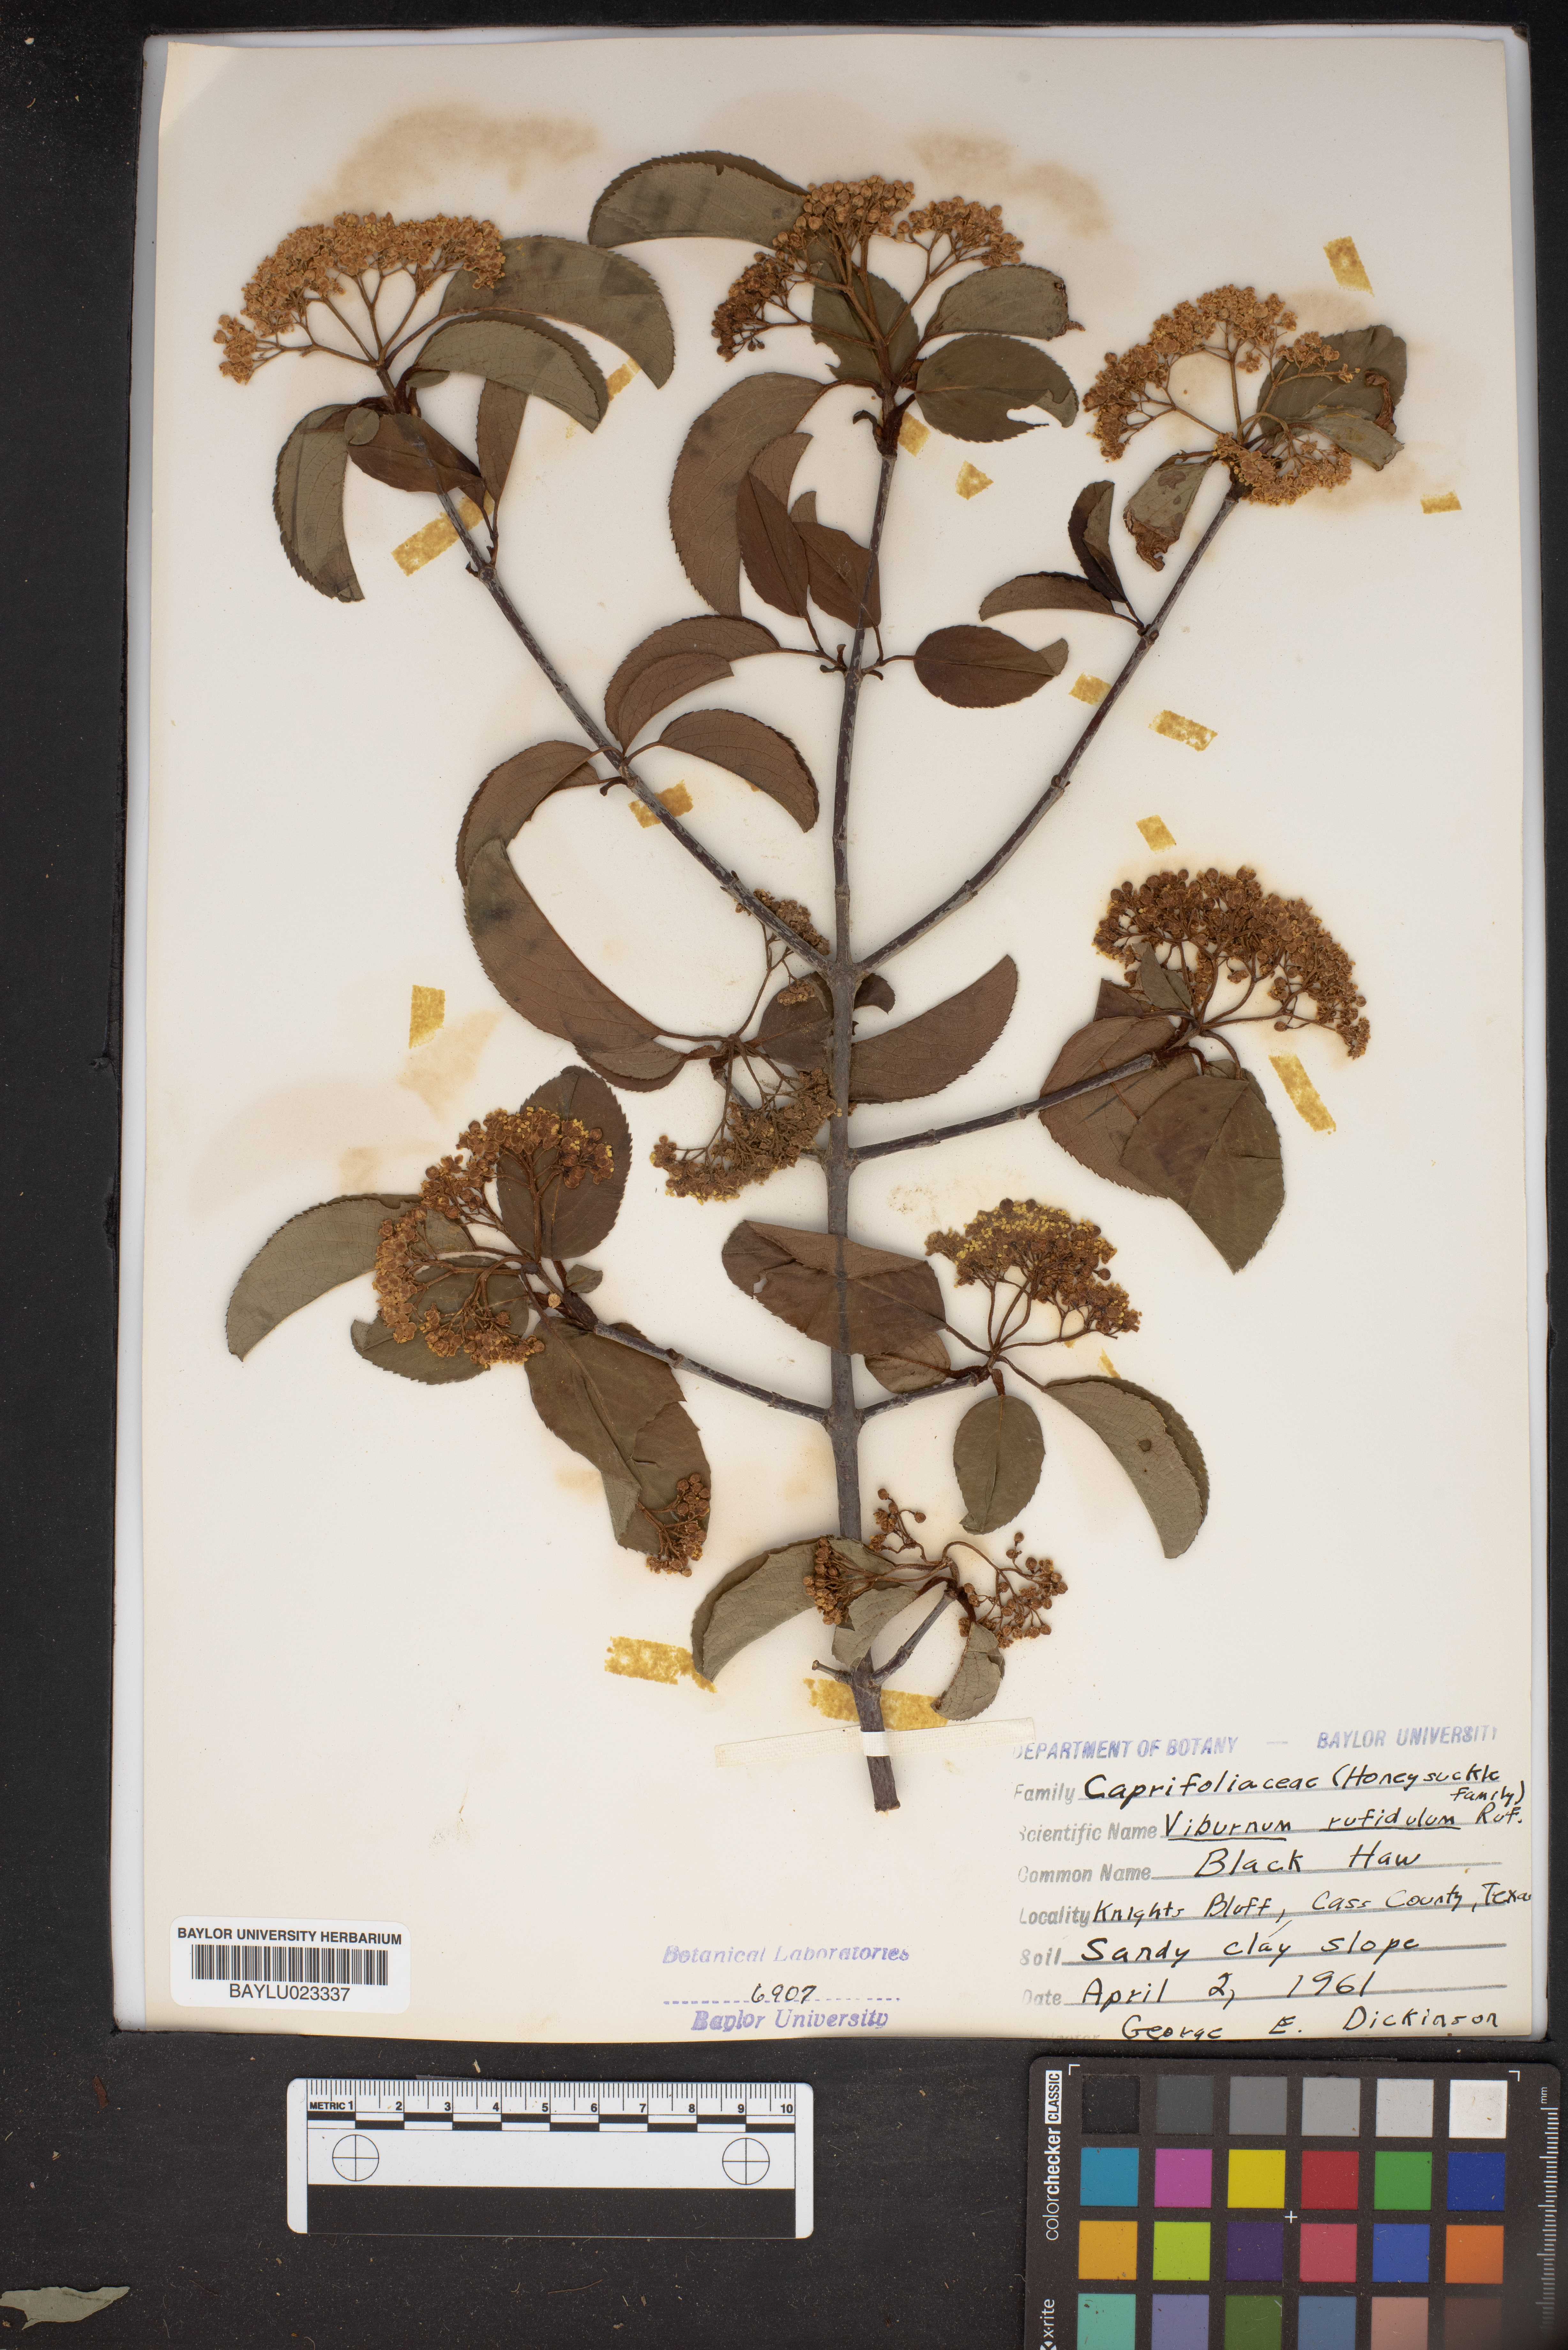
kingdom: Plantae
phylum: Tracheophyta
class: Magnoliopsida
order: Dipsacales
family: Viburnaceae
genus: Viburnum
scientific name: Viburnum rufidulum
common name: Blue haw
